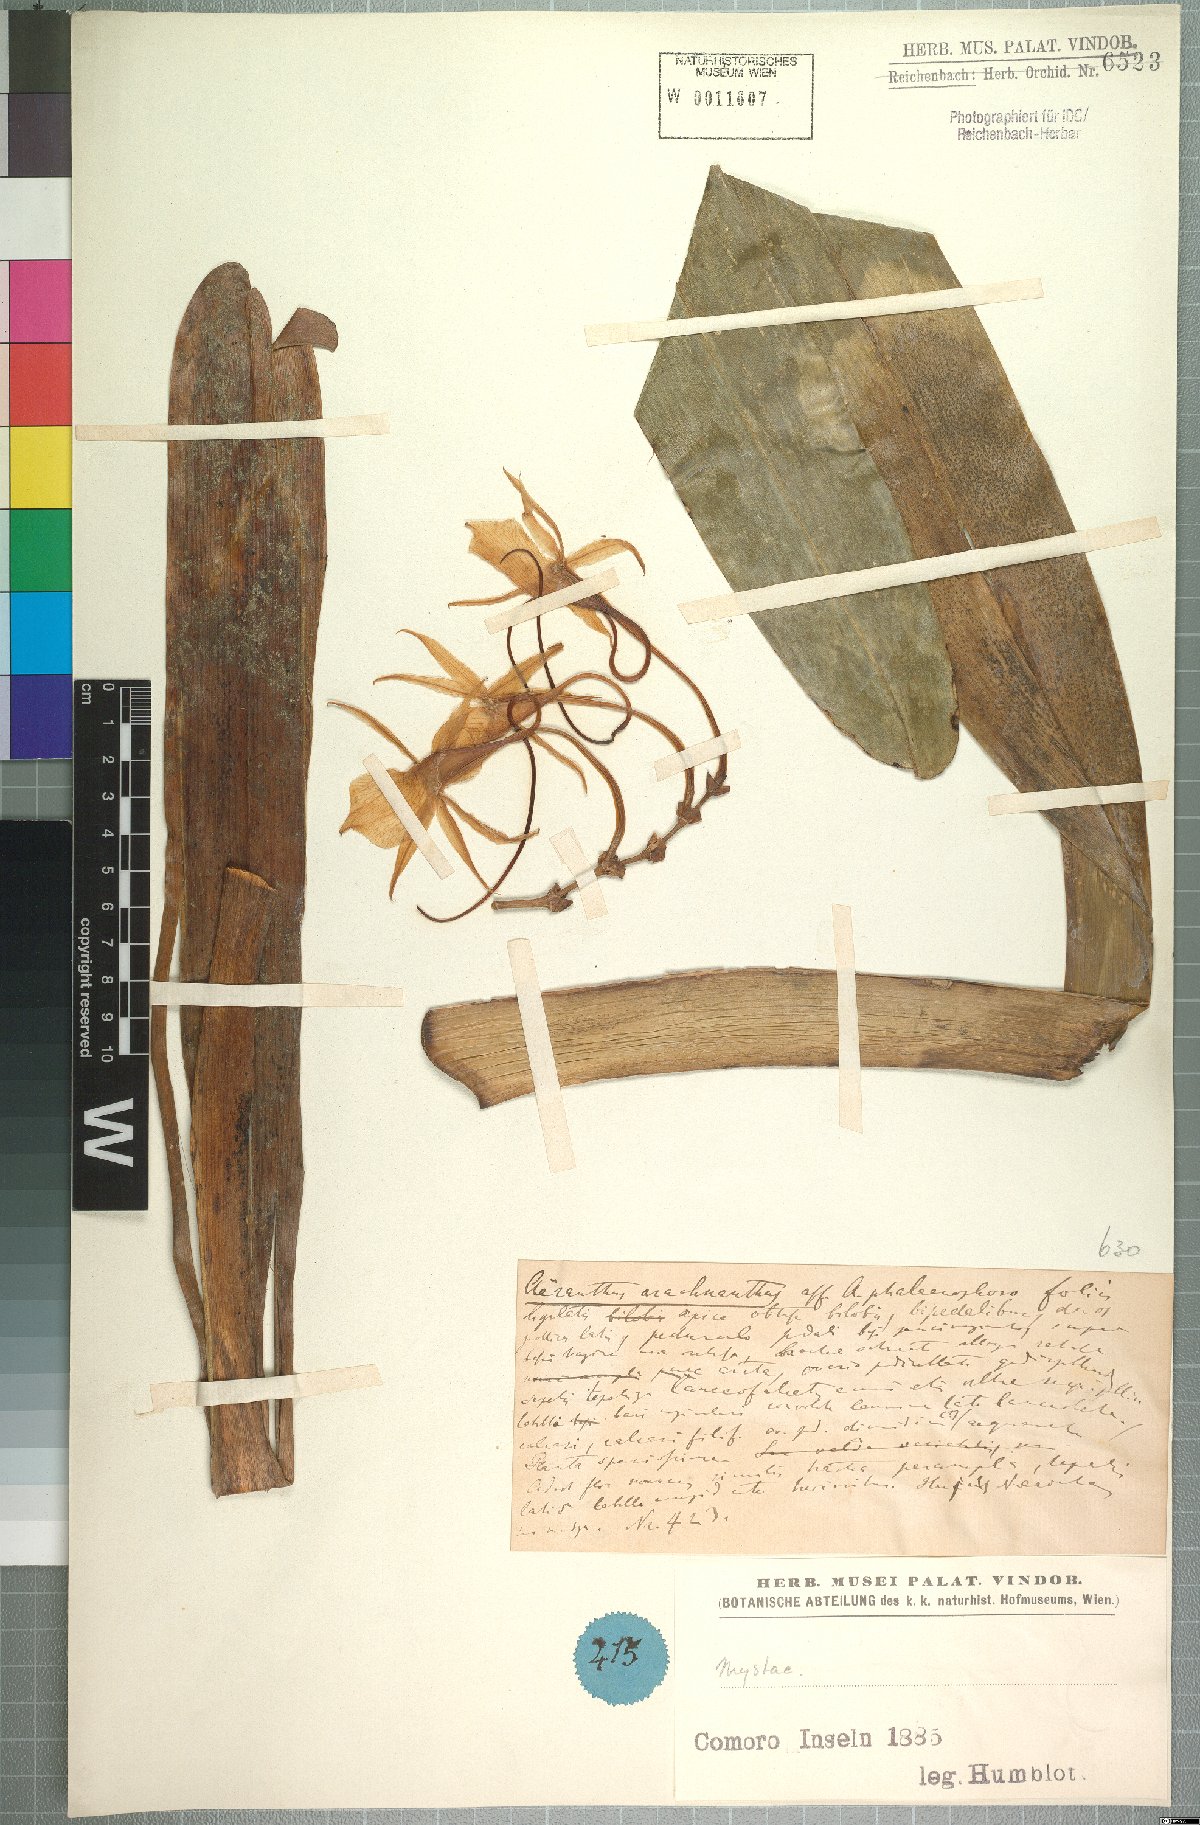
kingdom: Plantae
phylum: Tracheophyta
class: Liliopsida
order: Asparagales
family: Orchidaceae
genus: Jumellea
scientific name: Jumellea arachnantha
